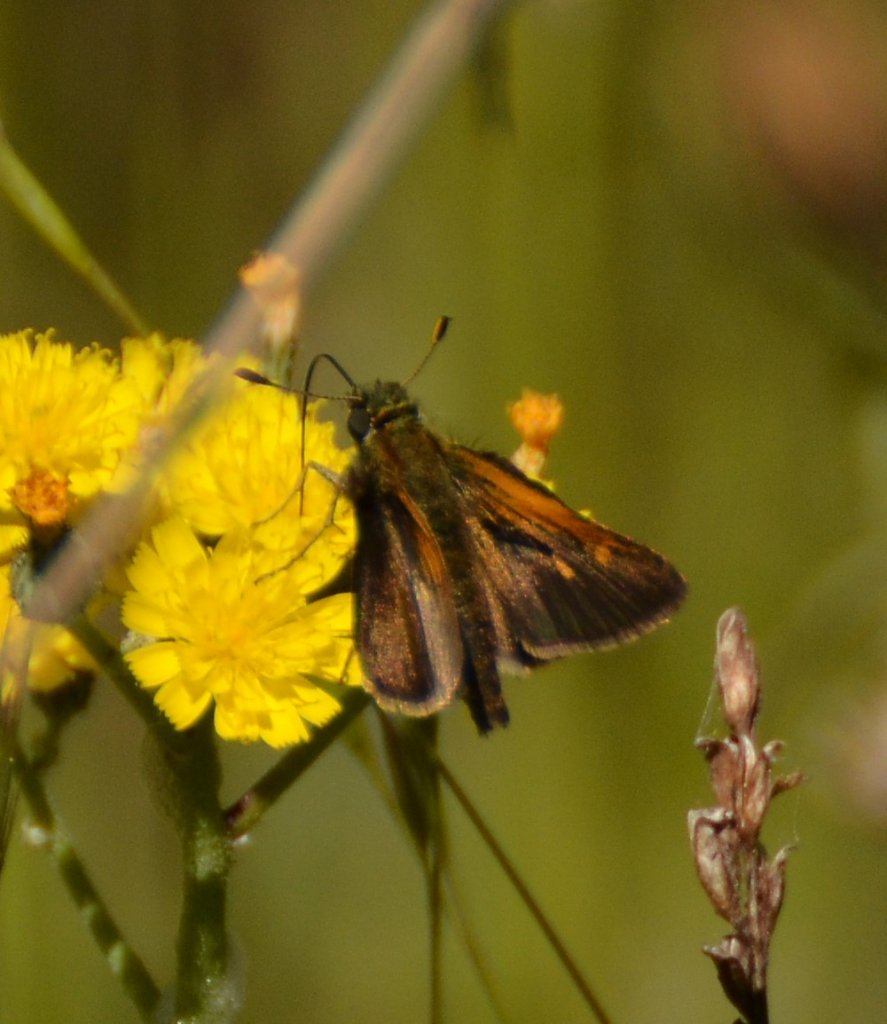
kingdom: Animalia
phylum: Arthropoda
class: Insecta
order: Lepidoptera
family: Hesperiidae
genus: Polites
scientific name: Polites themistocles
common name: Tawny-edged Skipper
